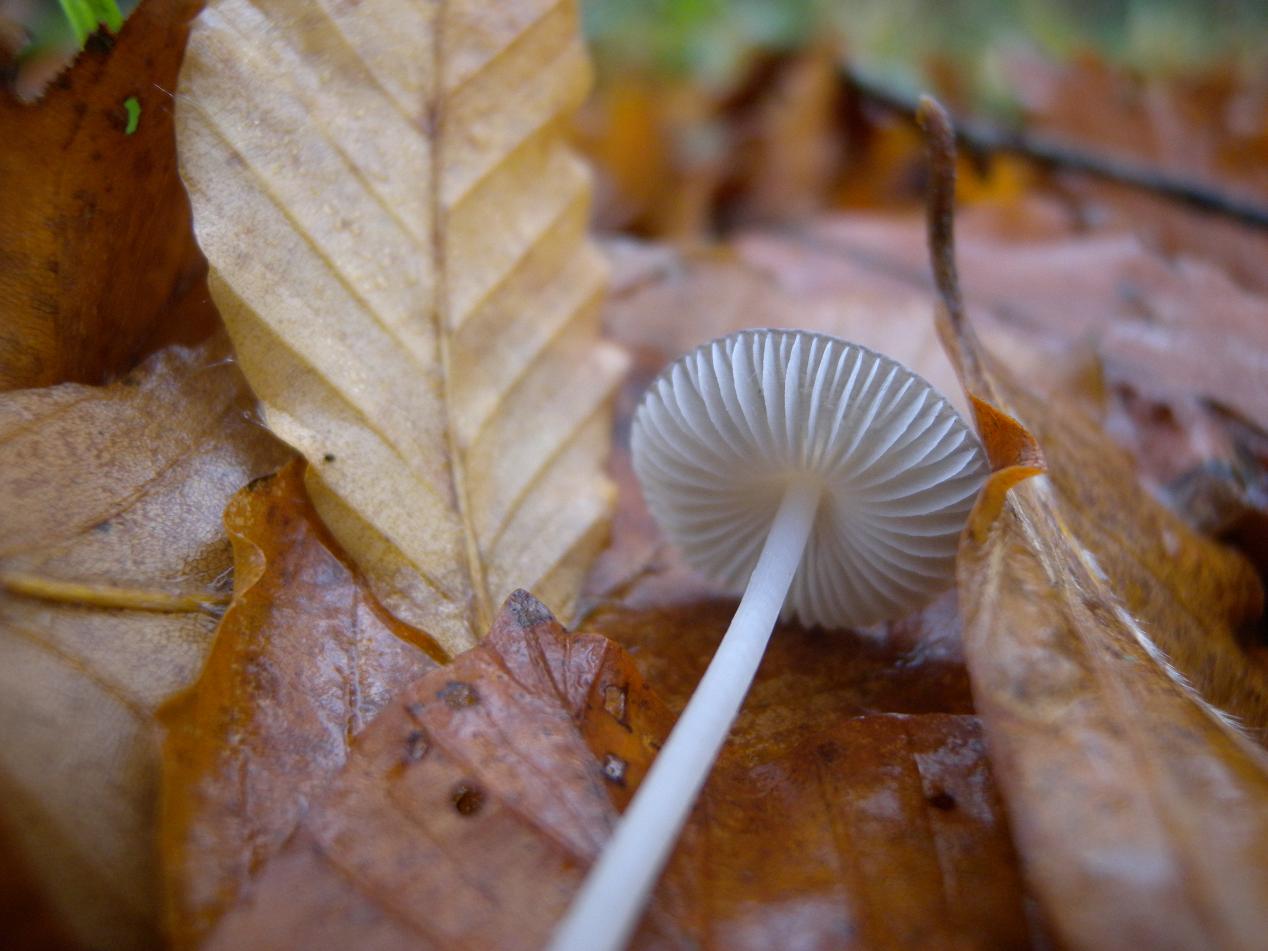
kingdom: Fungi
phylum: Basidiomycota
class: Agaricomycetes
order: Agaricales
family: Mycenaceae
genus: Mycena
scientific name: Mycena vitilis
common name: blankstokket huesvamp
